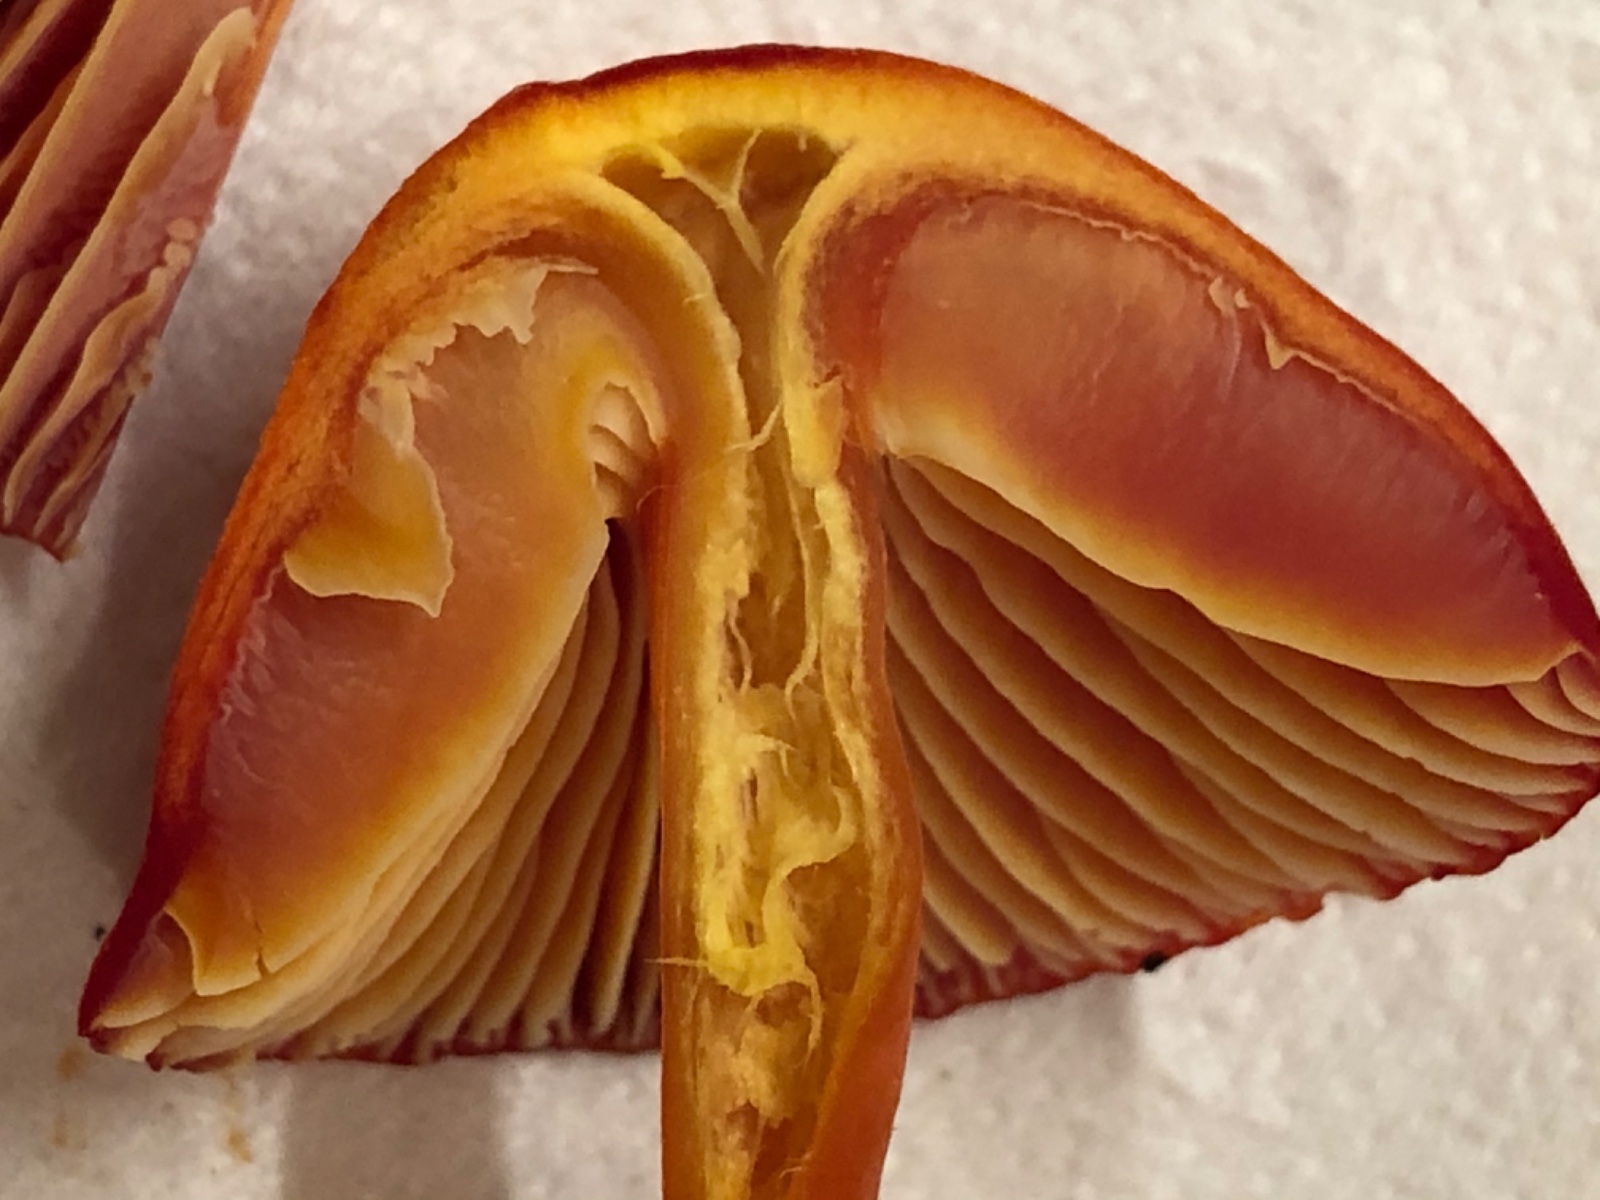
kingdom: Fungi
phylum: Basidiomycota
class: Agaricomycetes
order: Agaricales
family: Hygrophoraceae
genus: Hygrocybe
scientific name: Hygrocybe coccinea
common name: cinnober-vokshat
